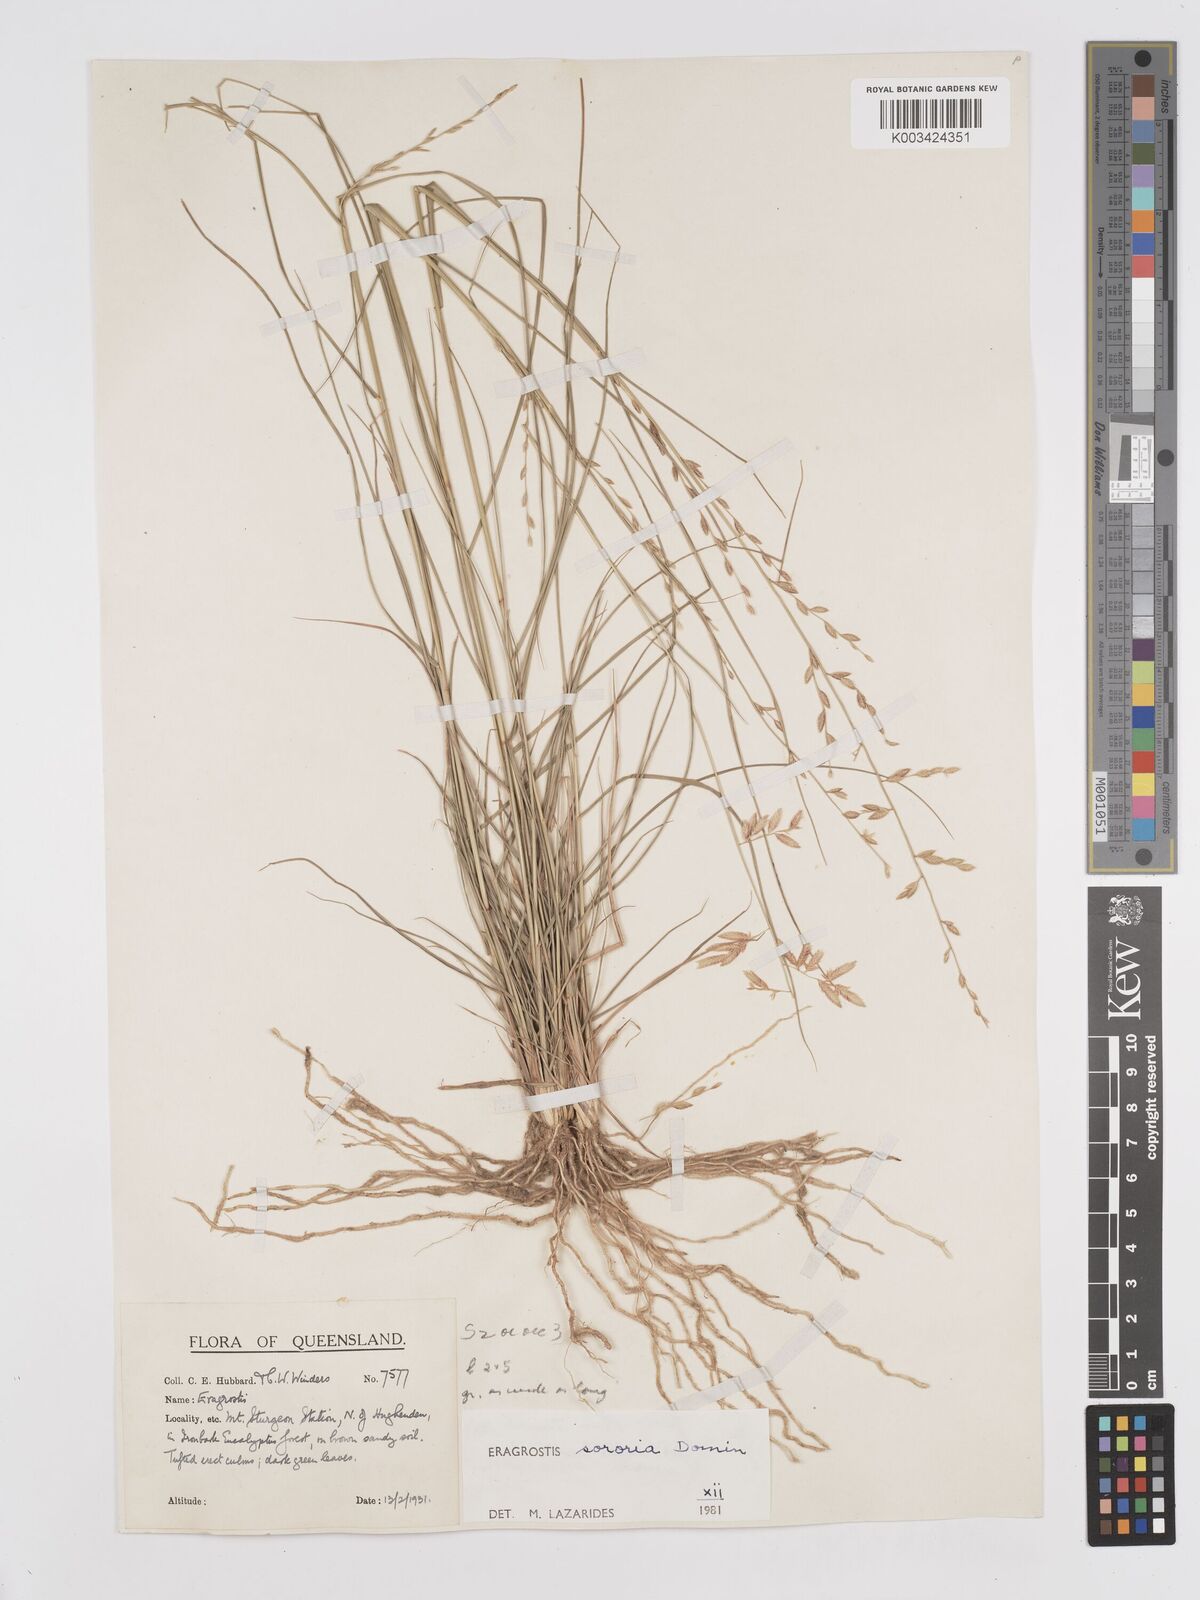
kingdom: Plantae
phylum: Tracheophyta
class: Liliopsida
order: Poales
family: Poaceae
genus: Eragrostis
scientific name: Eragrostis sororia
